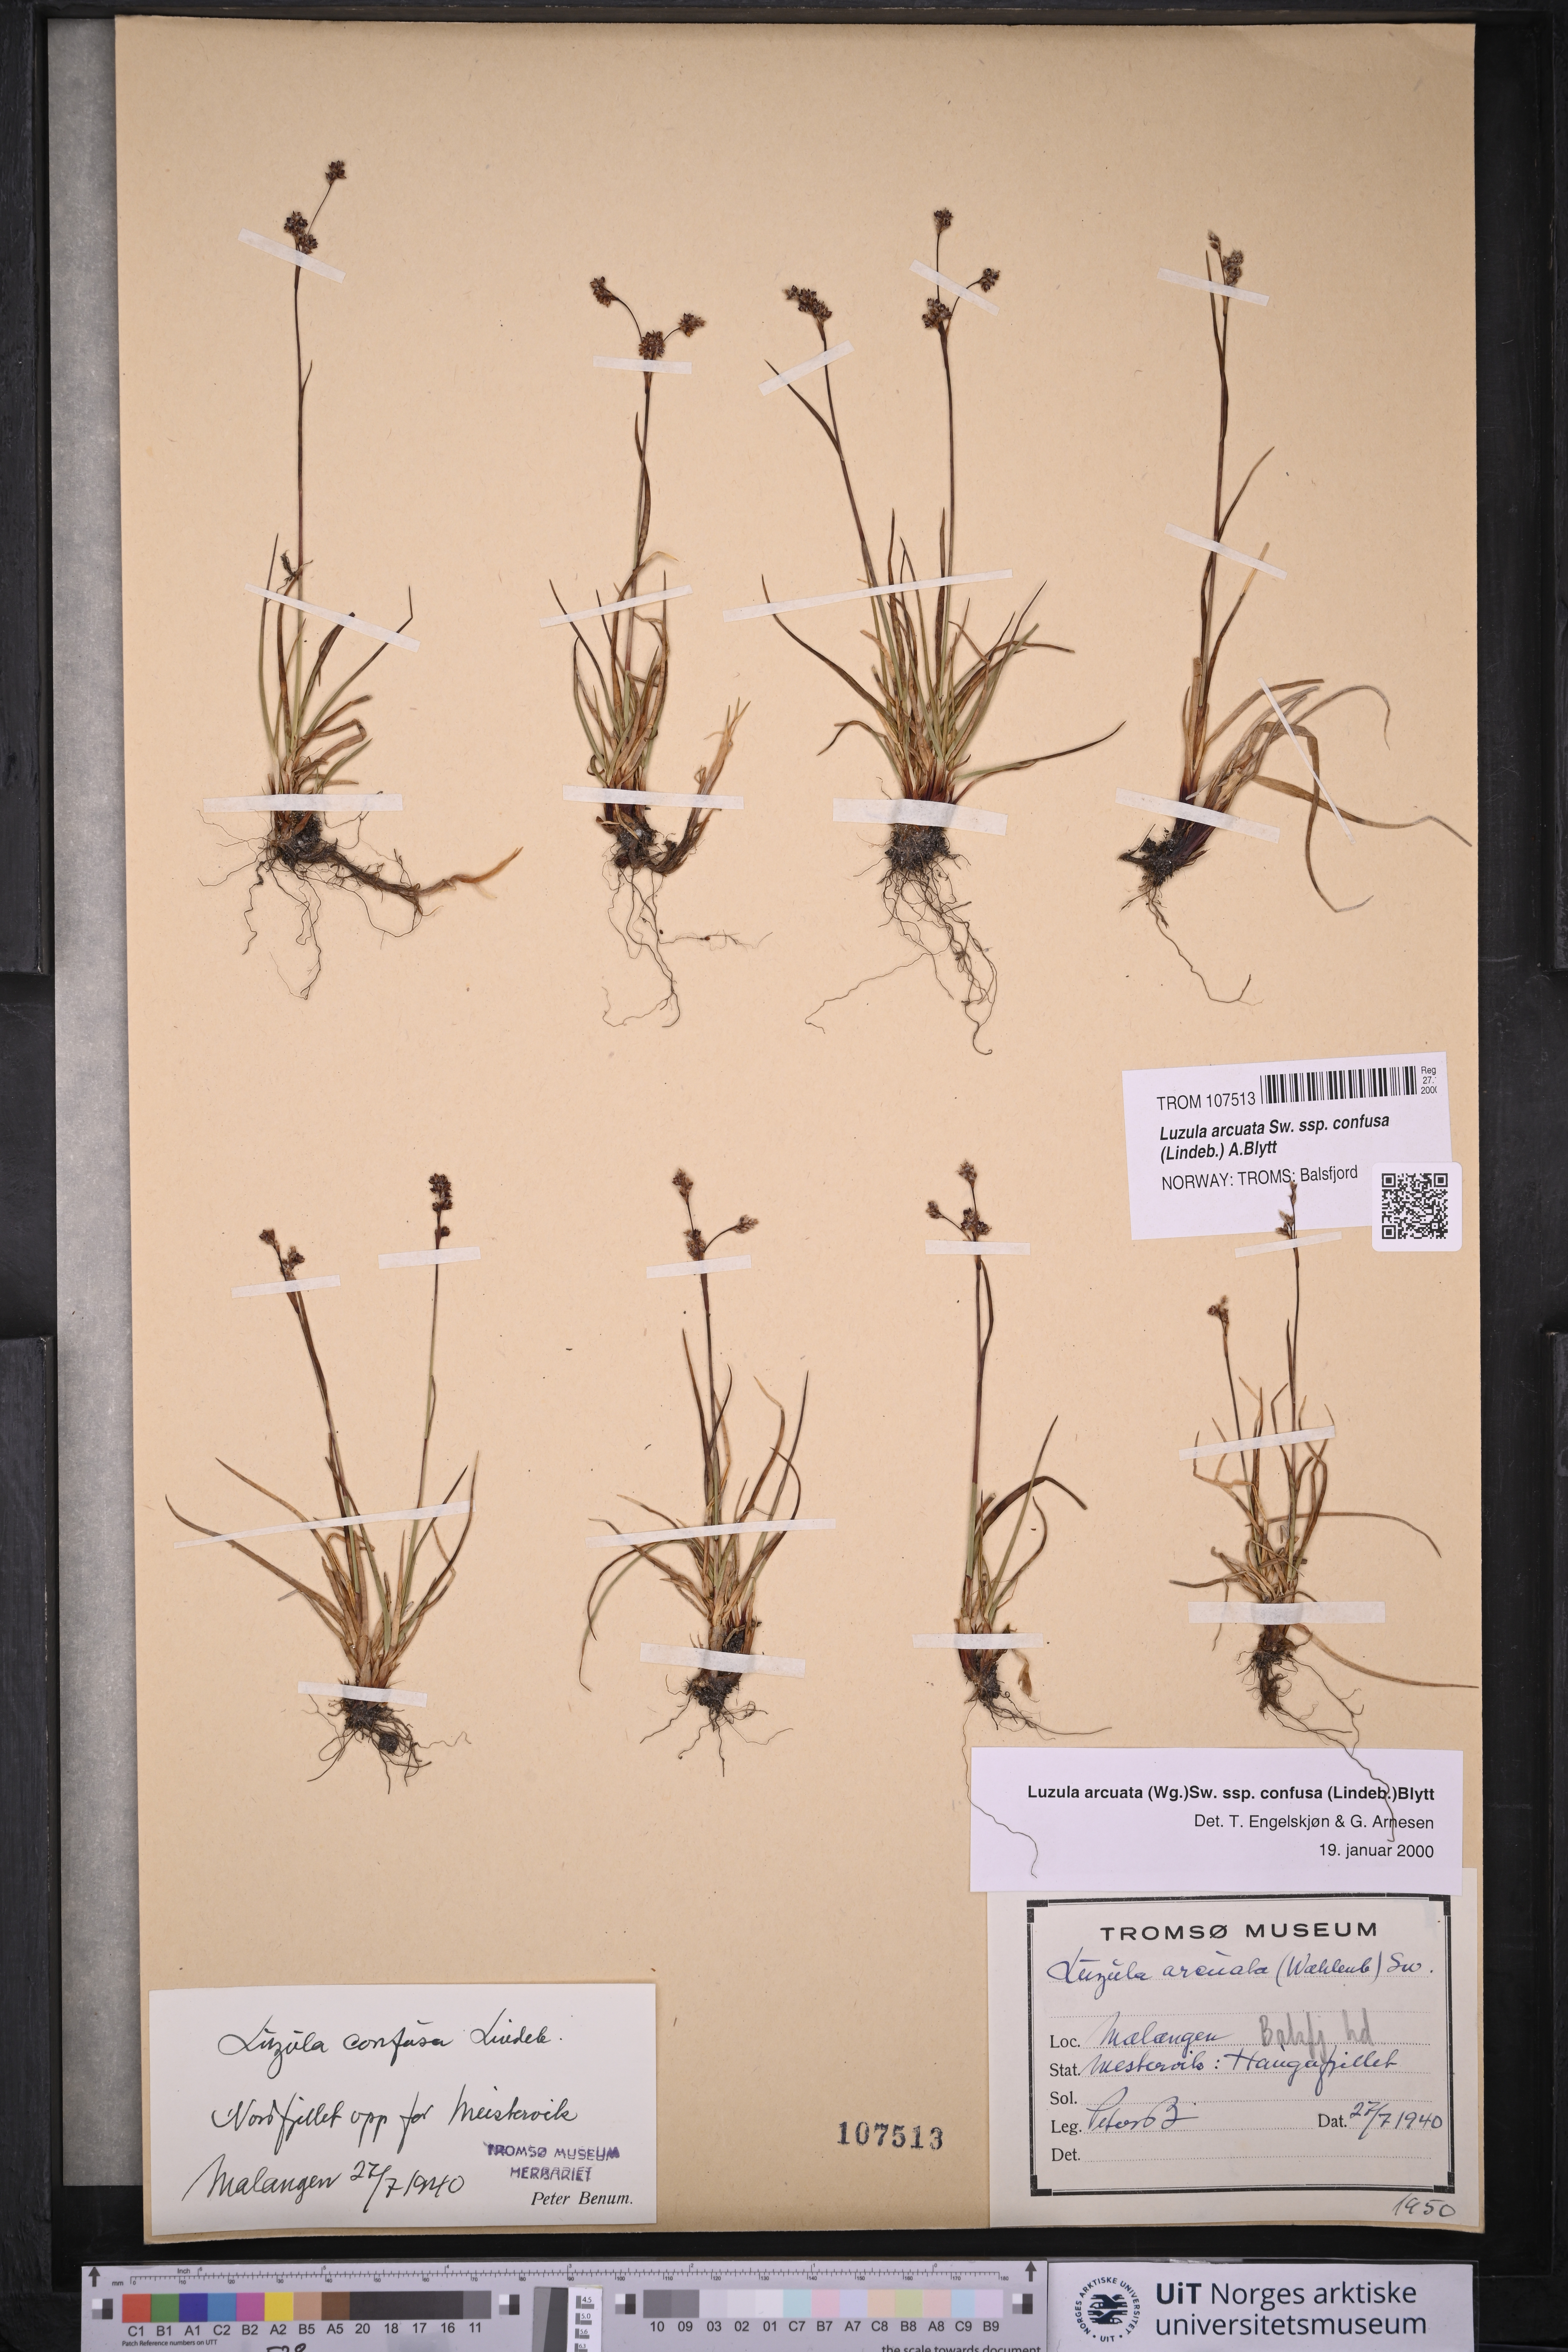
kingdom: Plantae
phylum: Tracheophyta
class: Liliopsida
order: Poales
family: Juncaceae
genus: Luzula
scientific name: Luzula confusa
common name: Northern wood rush
